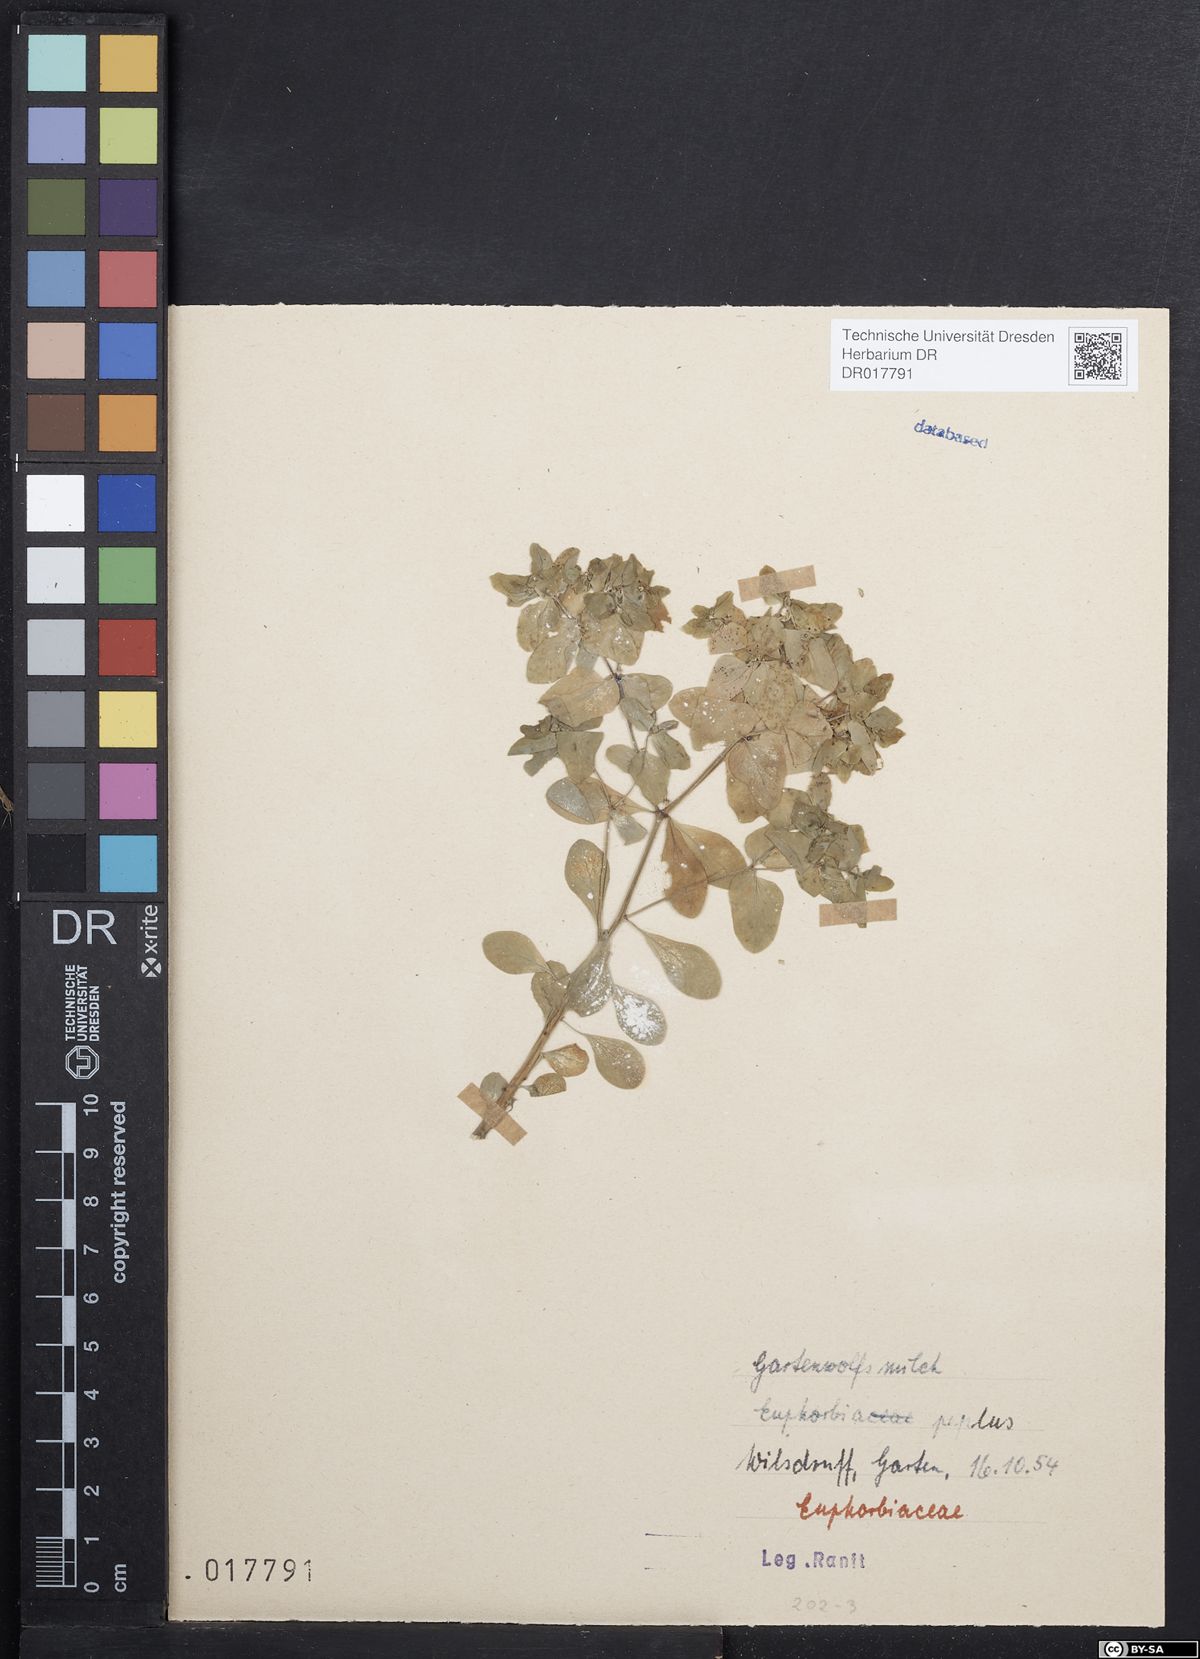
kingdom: Plantae
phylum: Tracheophyta
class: Magnoliopsida
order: Malpighiales
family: Euphorbiaceae
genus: Euphorbia
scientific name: Euphorbia peplus
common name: Petty spurge
